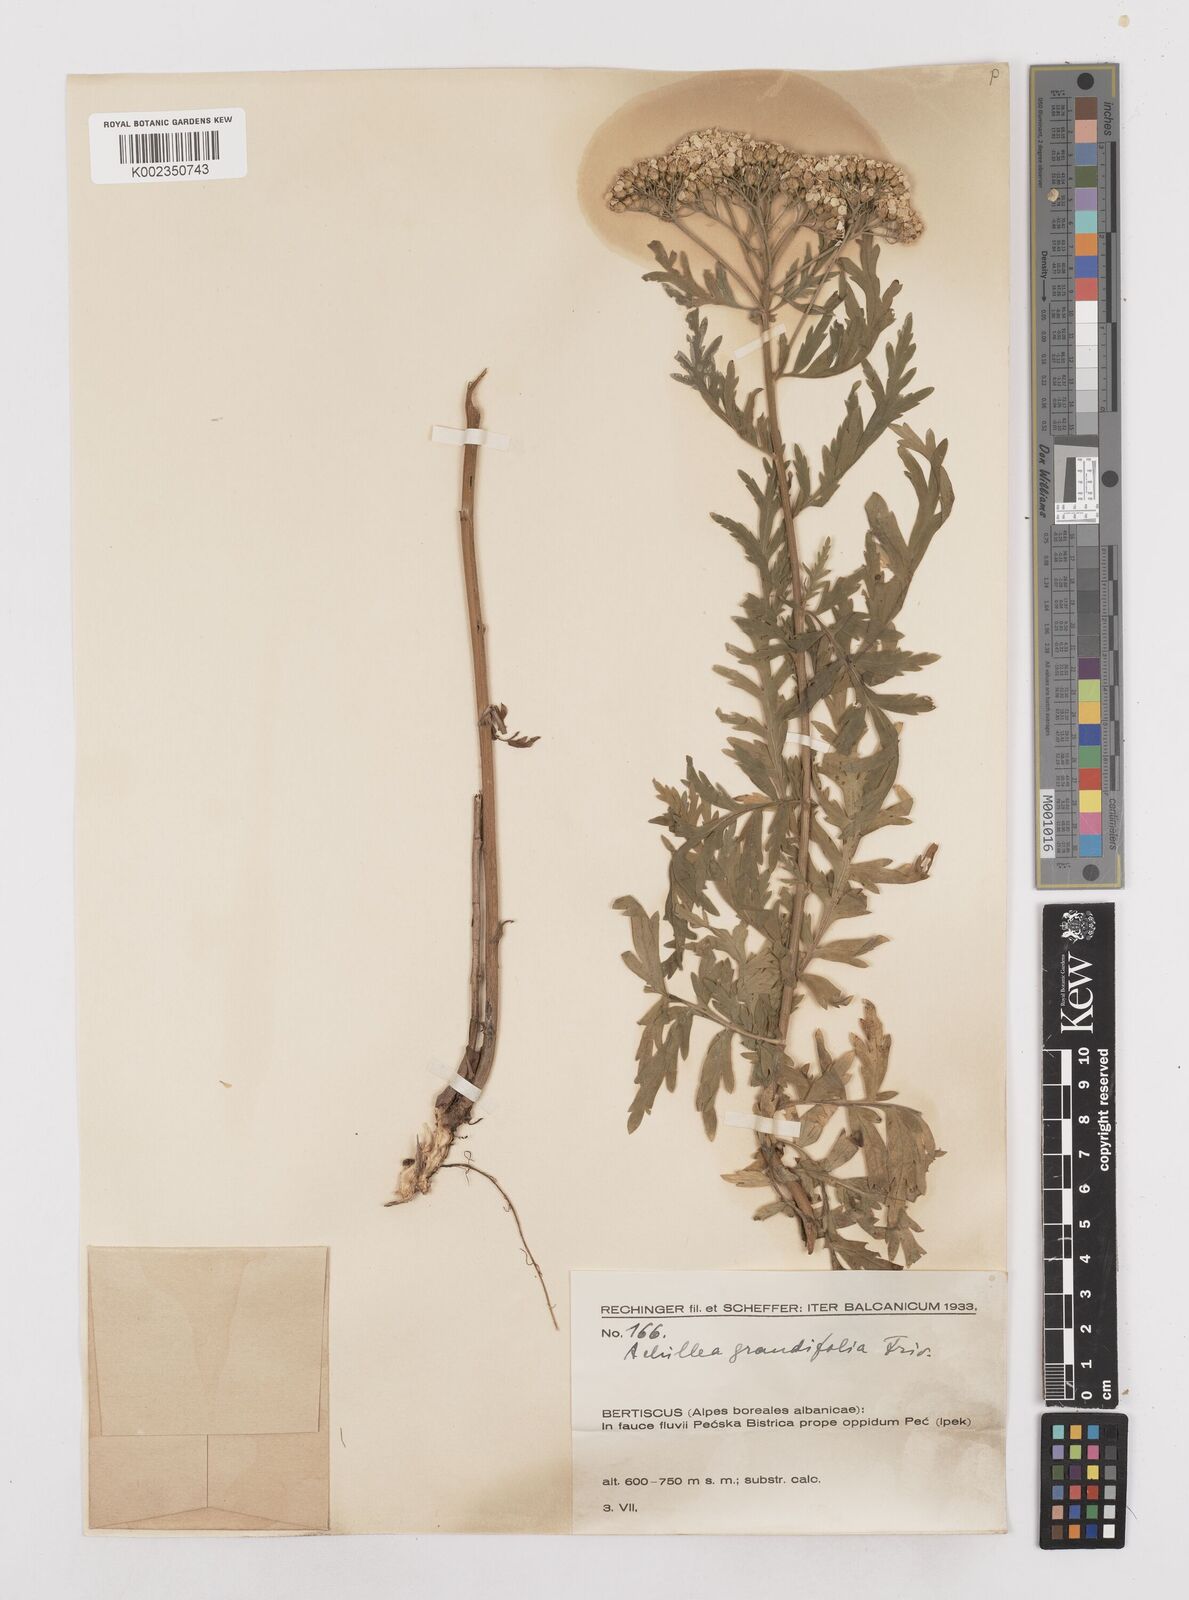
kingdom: Plantae
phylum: Tracheophyta
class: Magnoliopsida
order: Asterales
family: Asteraceae
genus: Achillea
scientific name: Achillea grandifolia
